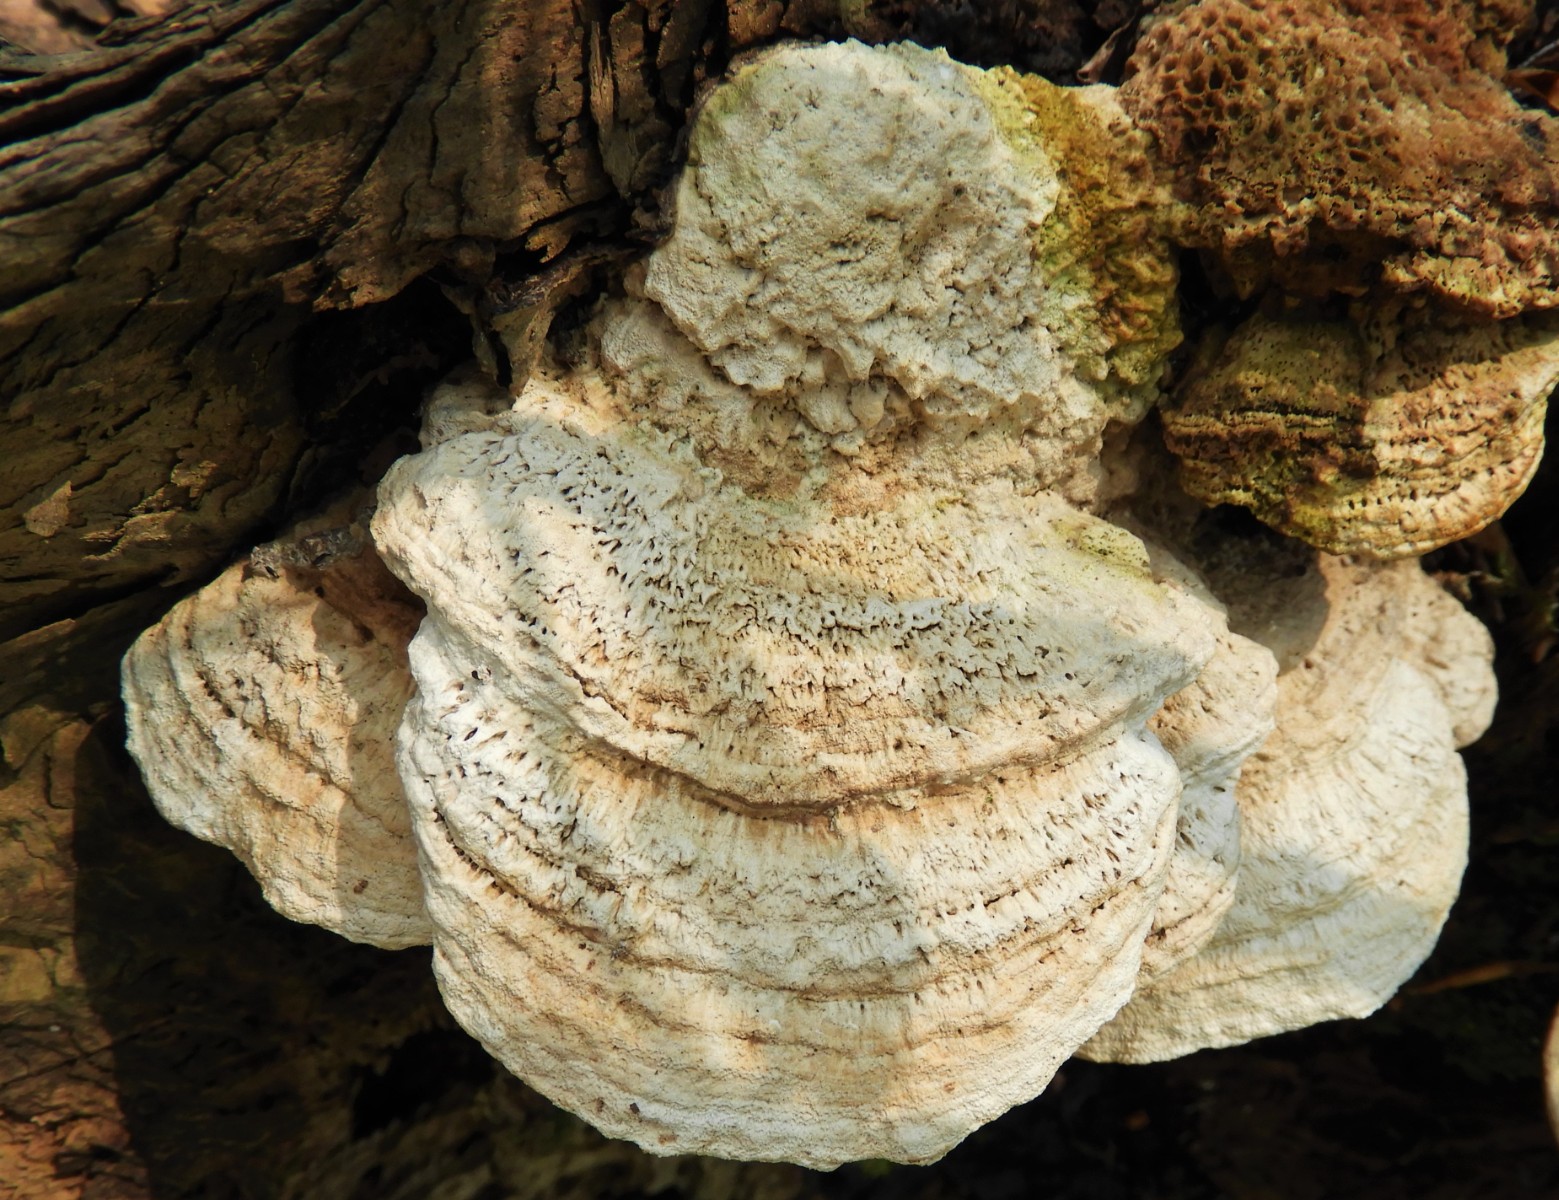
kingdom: Fungi
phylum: Basidiomycota
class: Agaricomycetes
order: Polyporales
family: Fomitopsidaceae
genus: Daedalea
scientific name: Daedalea quercina
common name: ege-labyrintsvamp
